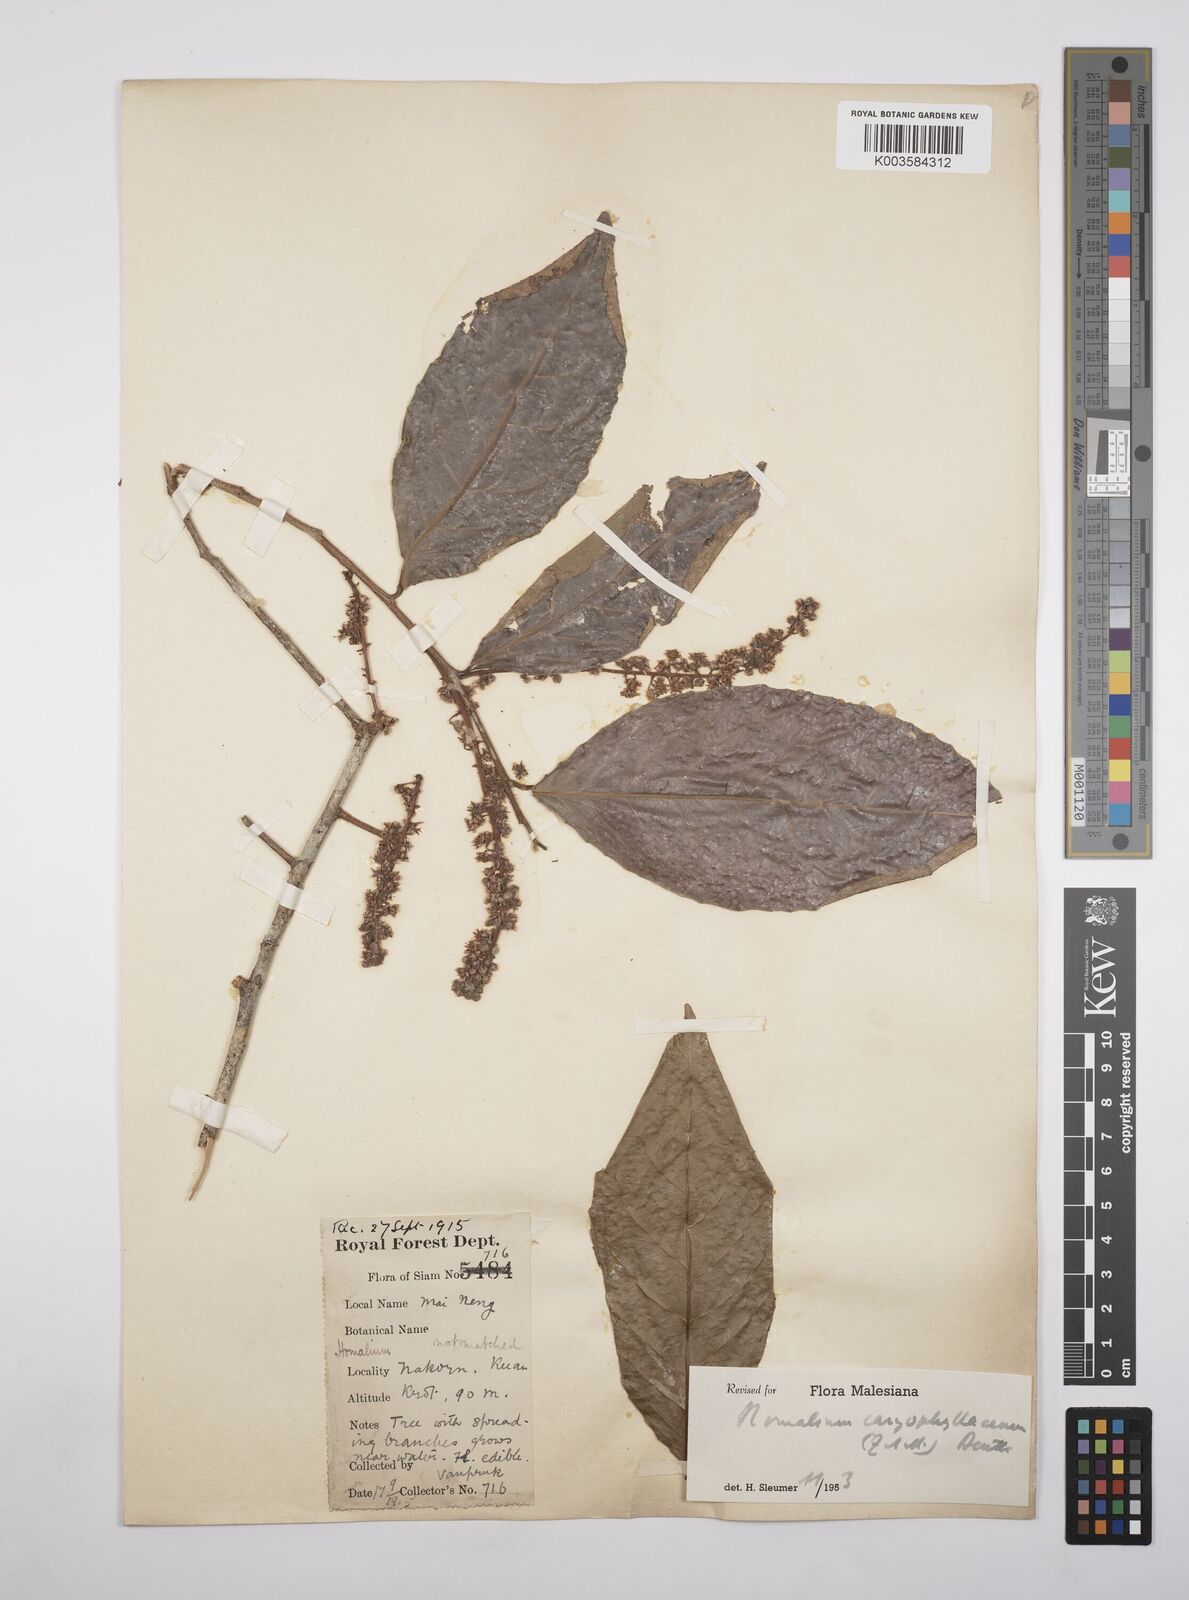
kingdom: Plantae
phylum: Tracheophyta
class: Magnoliopsida
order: Malpighiales
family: Salicaceae
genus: Homalium
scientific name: Homalium caryophyllaceum
